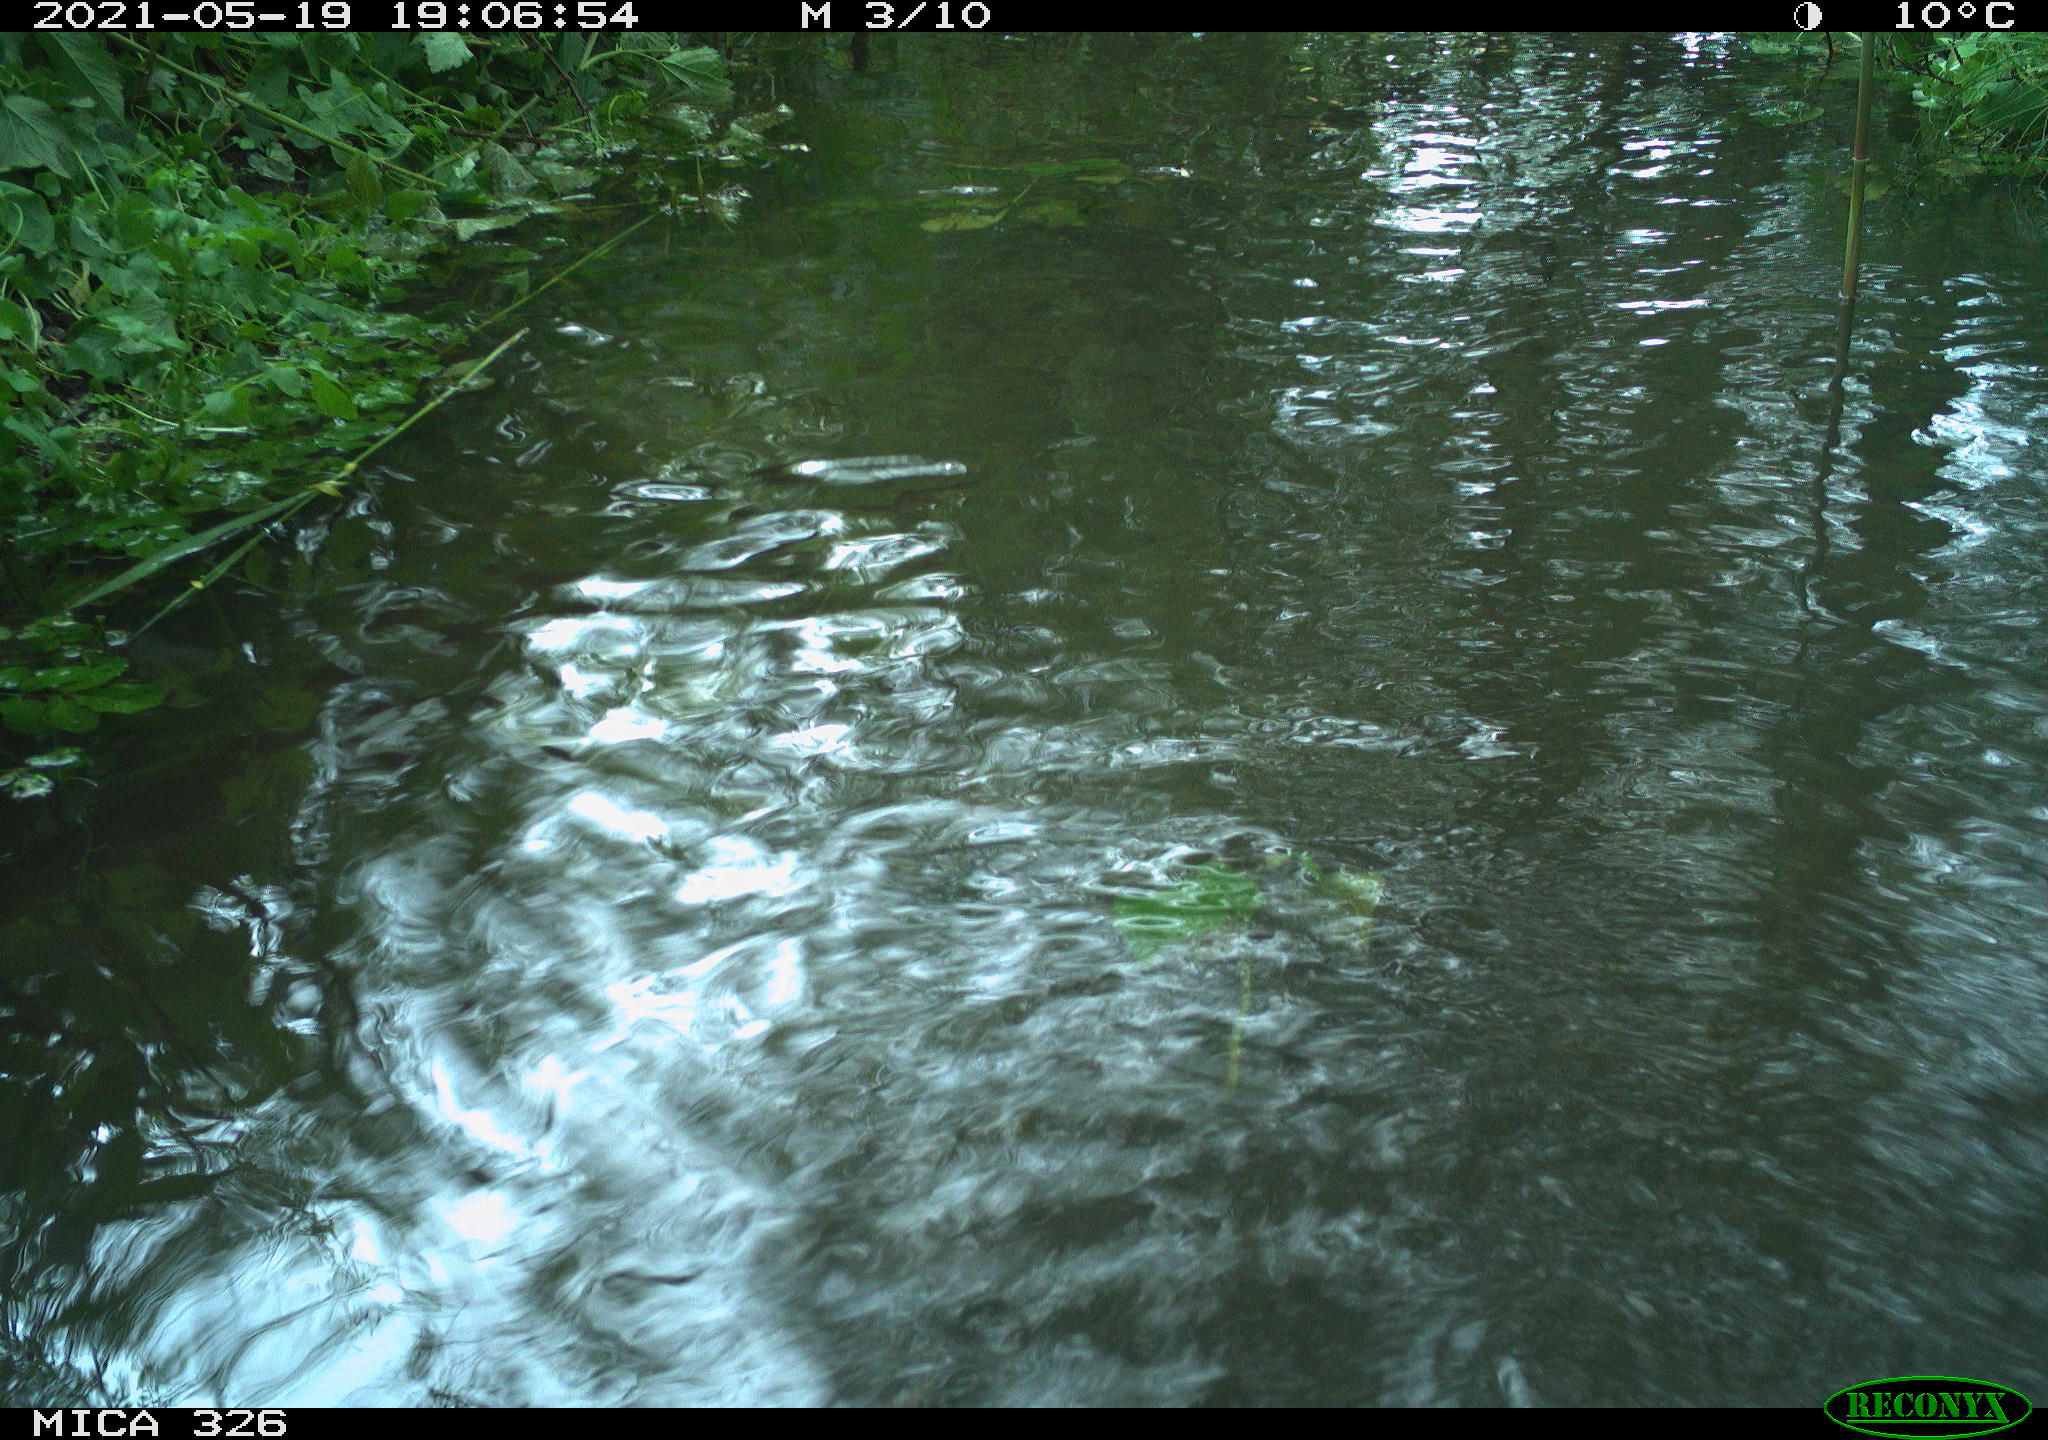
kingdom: Animalia
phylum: Chordata
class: Mammalia
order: Rodentia
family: Cricetidae
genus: Ondatra
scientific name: Ondatra zibethicus
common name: Muskrat
